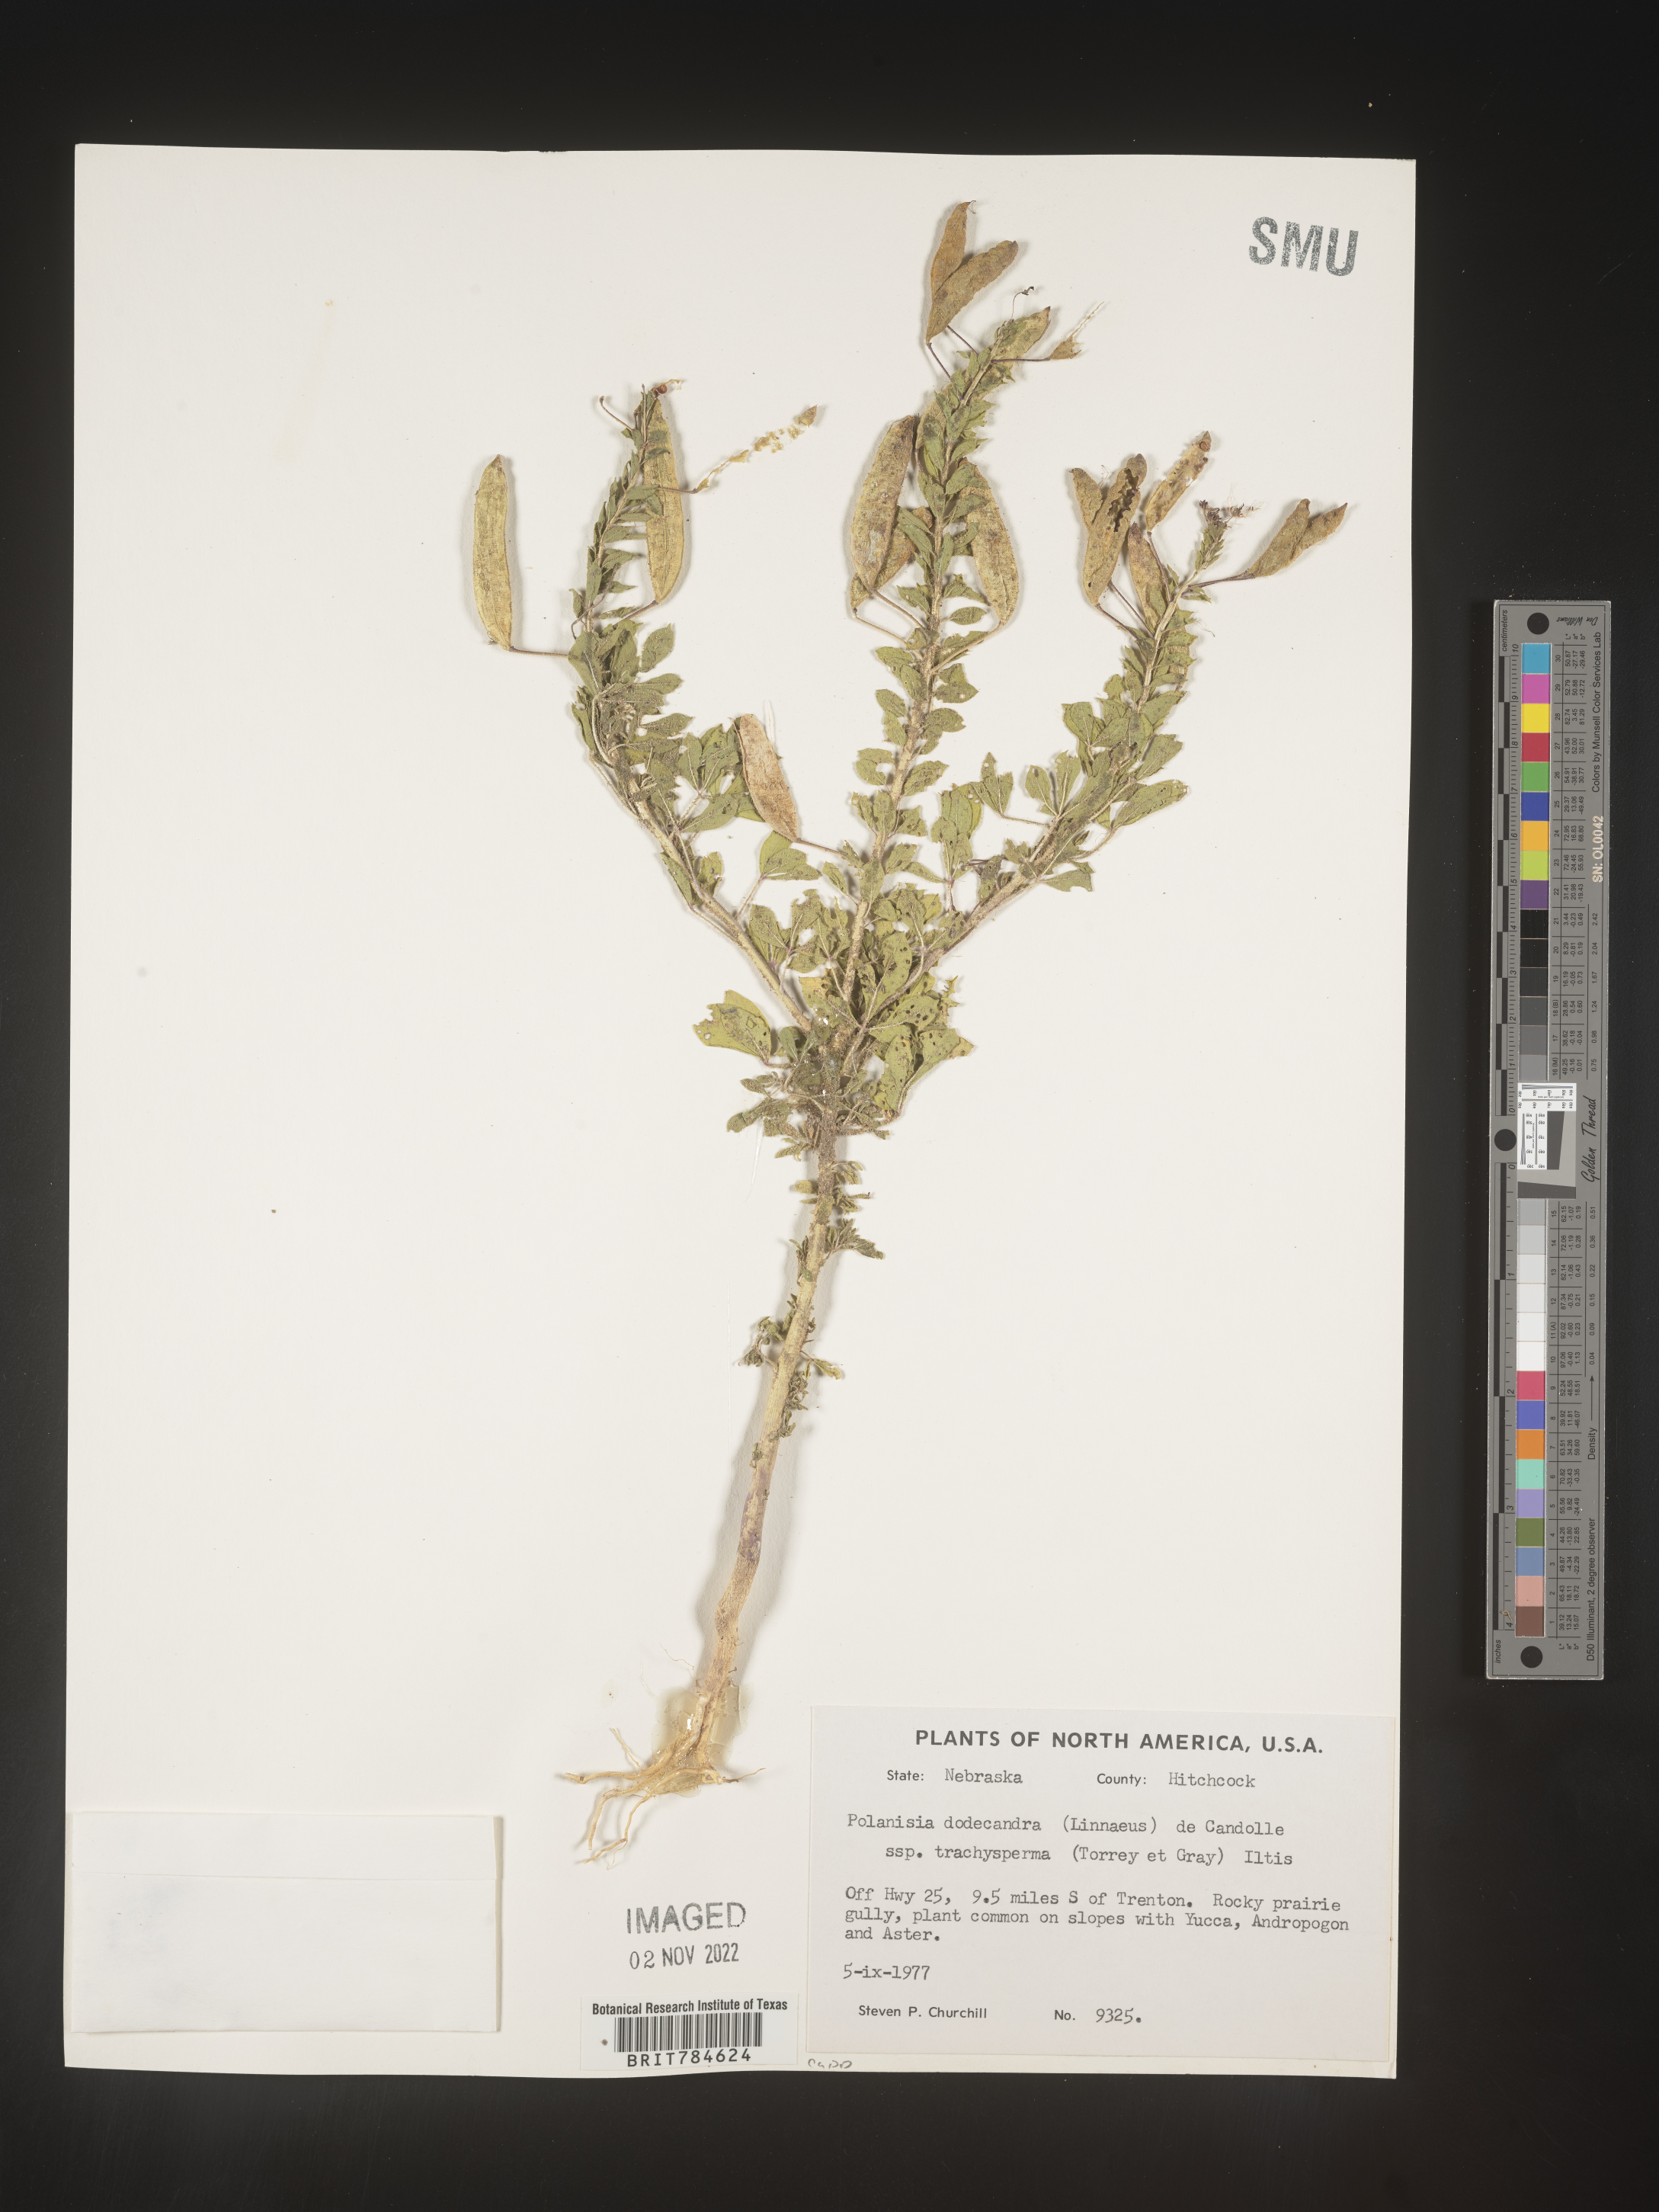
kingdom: Plantae
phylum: Tracheophyta
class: Magnoliopsida
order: Brassicales
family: Cleomaceae
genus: Polanisia
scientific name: Polanisia dodecandra
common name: Clammyweed
